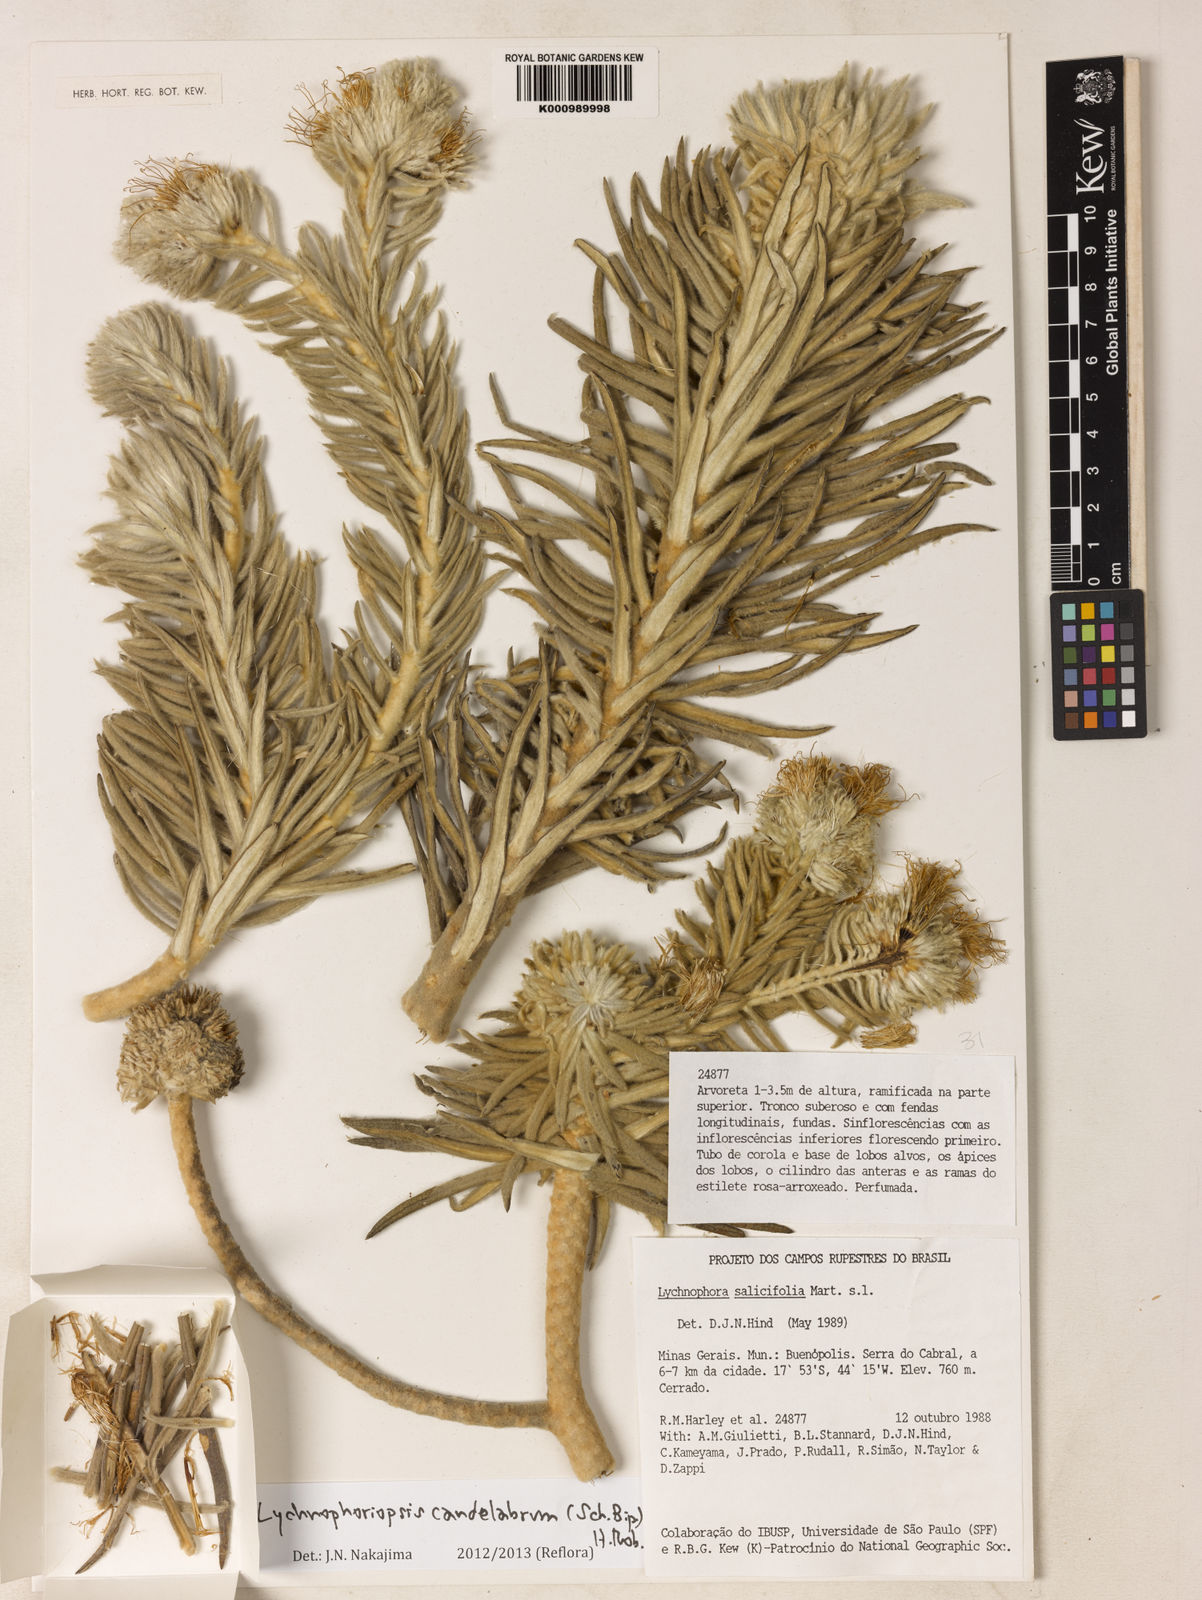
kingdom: Plantae
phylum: Tracheophyta
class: Magnoliopsida
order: Asterales
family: Asteraceae
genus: Lychnophora
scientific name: Lychnophora candelabrum
